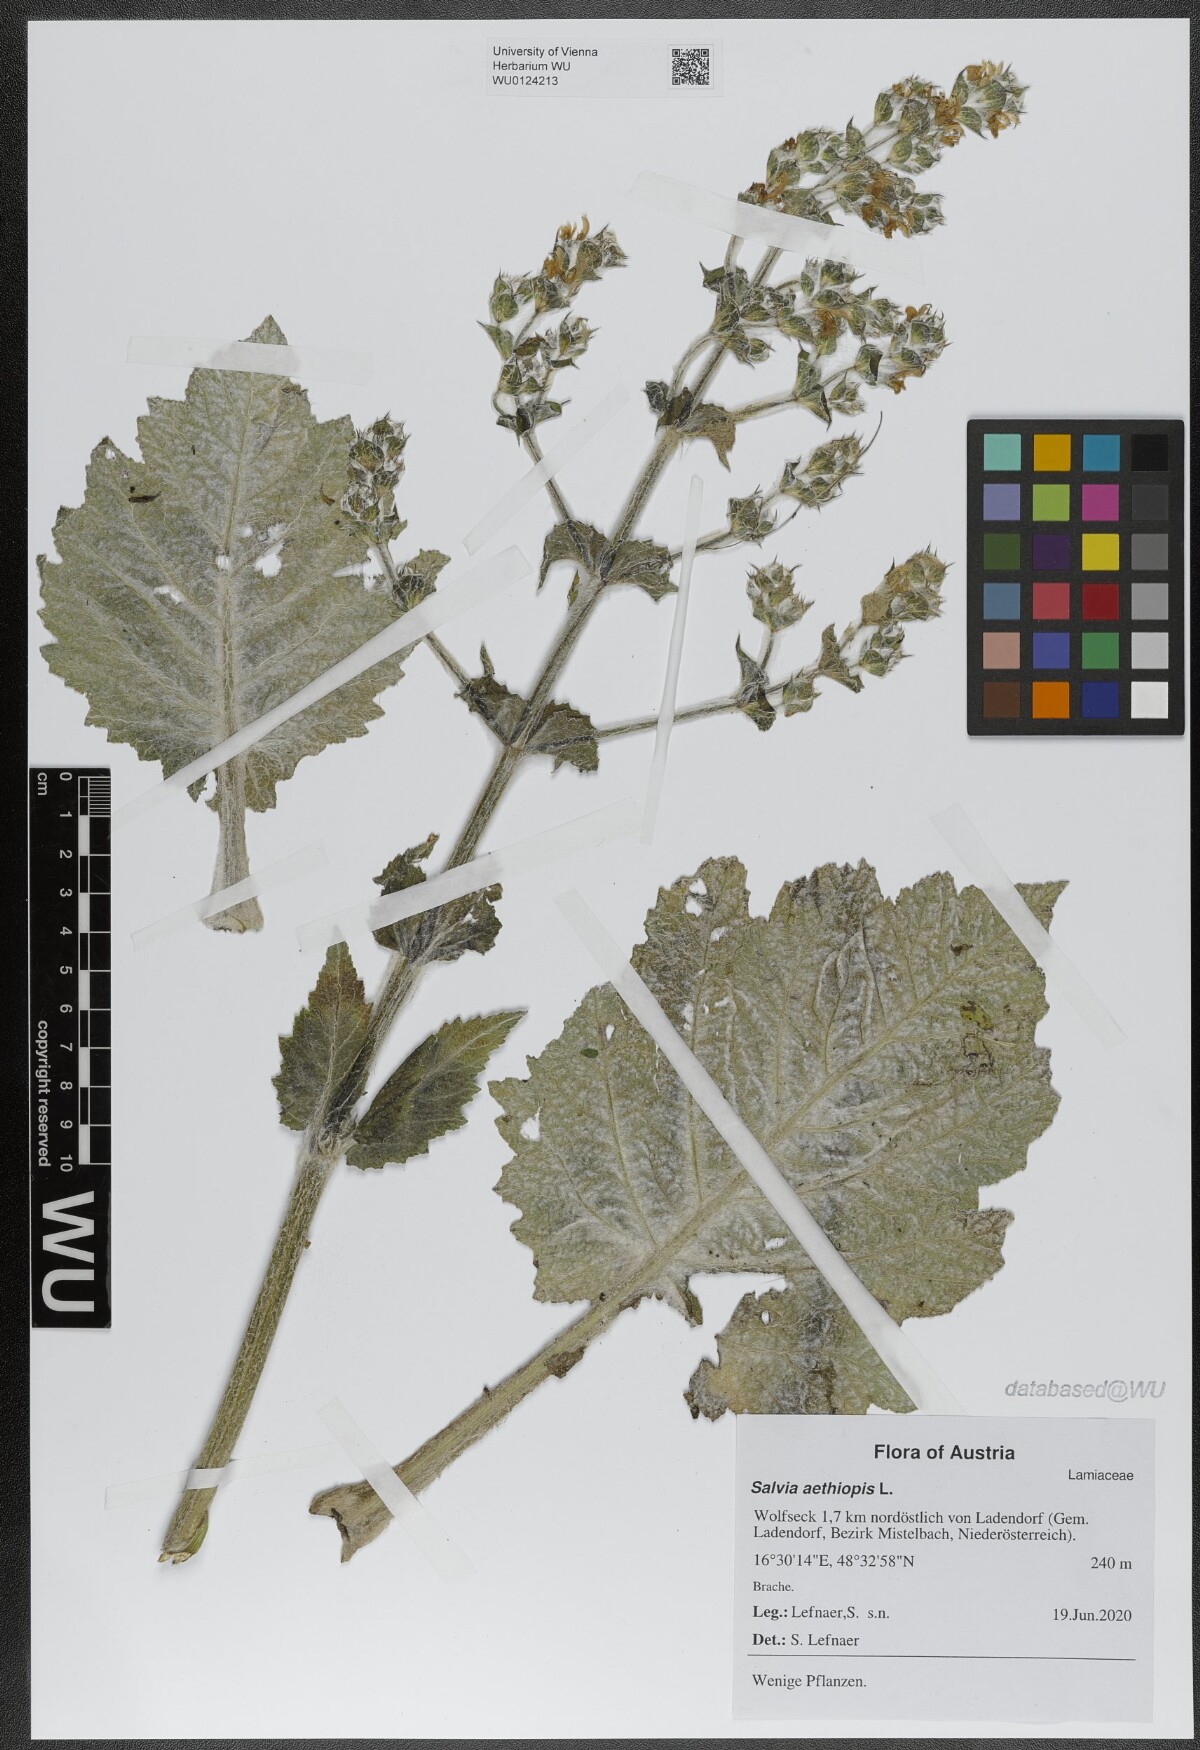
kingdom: Plantae
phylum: Tracheophyta
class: Magnoliopsida
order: Lamiales
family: Lamiaceae
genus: Salvia
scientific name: Salvia aethiopis
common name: Mediterranean sage
